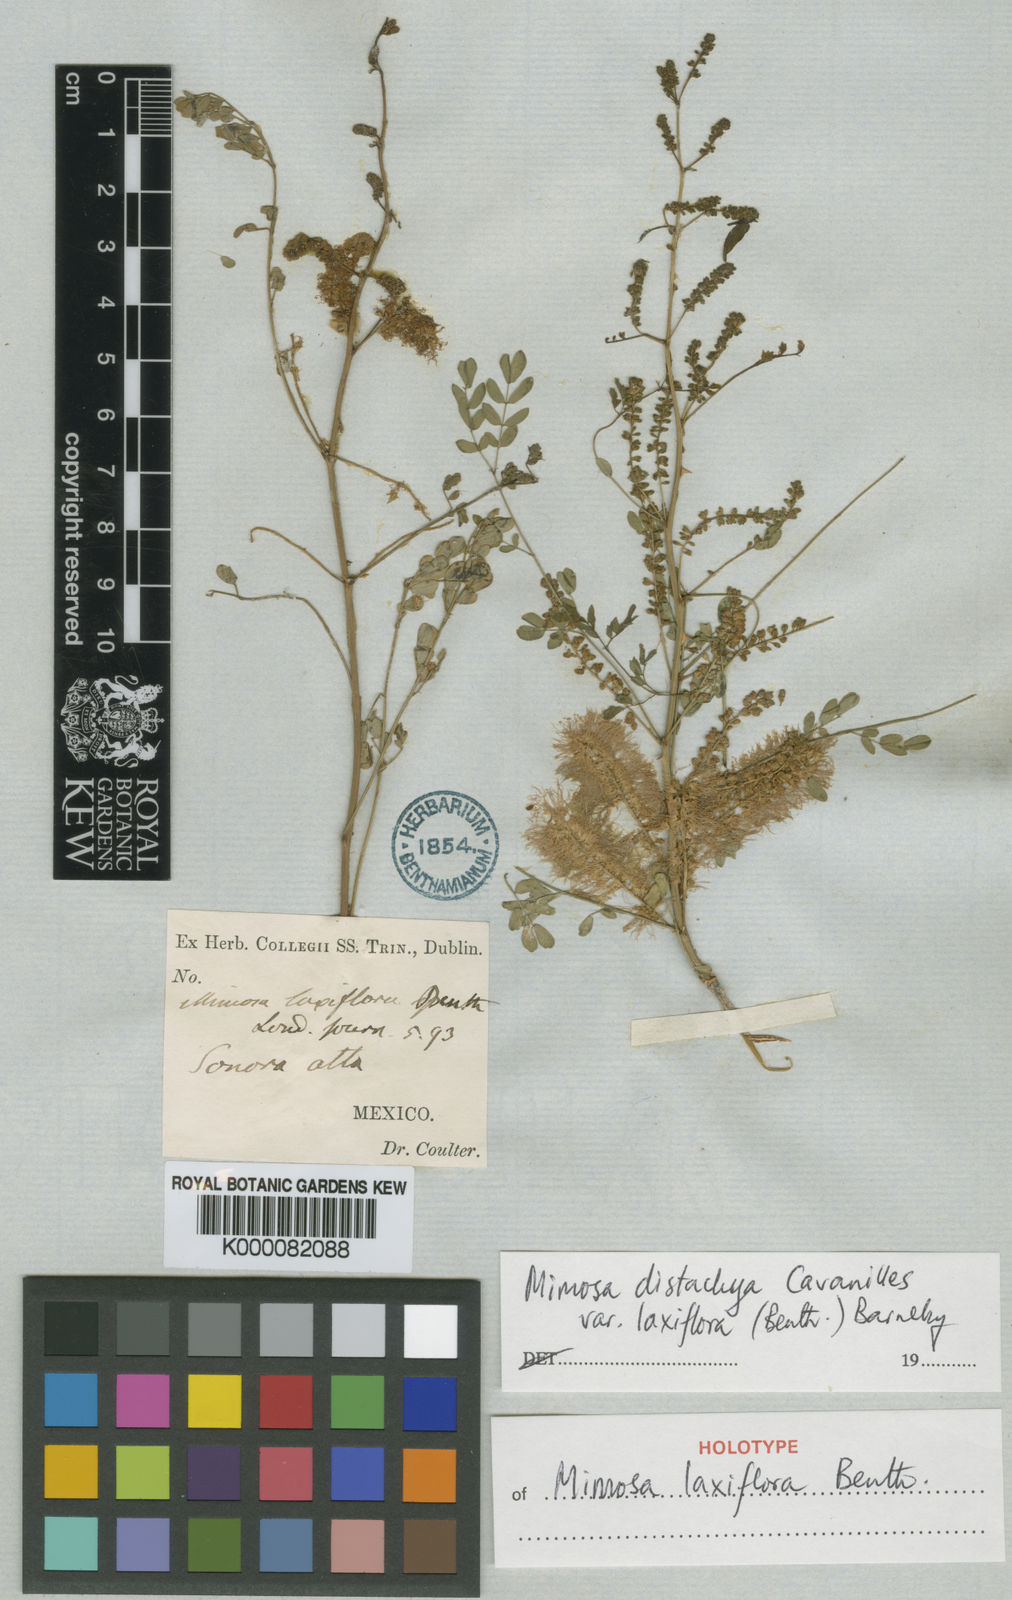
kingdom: Plantae
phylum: Tracheophyta
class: Magnoliopsida
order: Fabales
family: Fabaceae
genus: Mimosa
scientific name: Mimosa distachya
